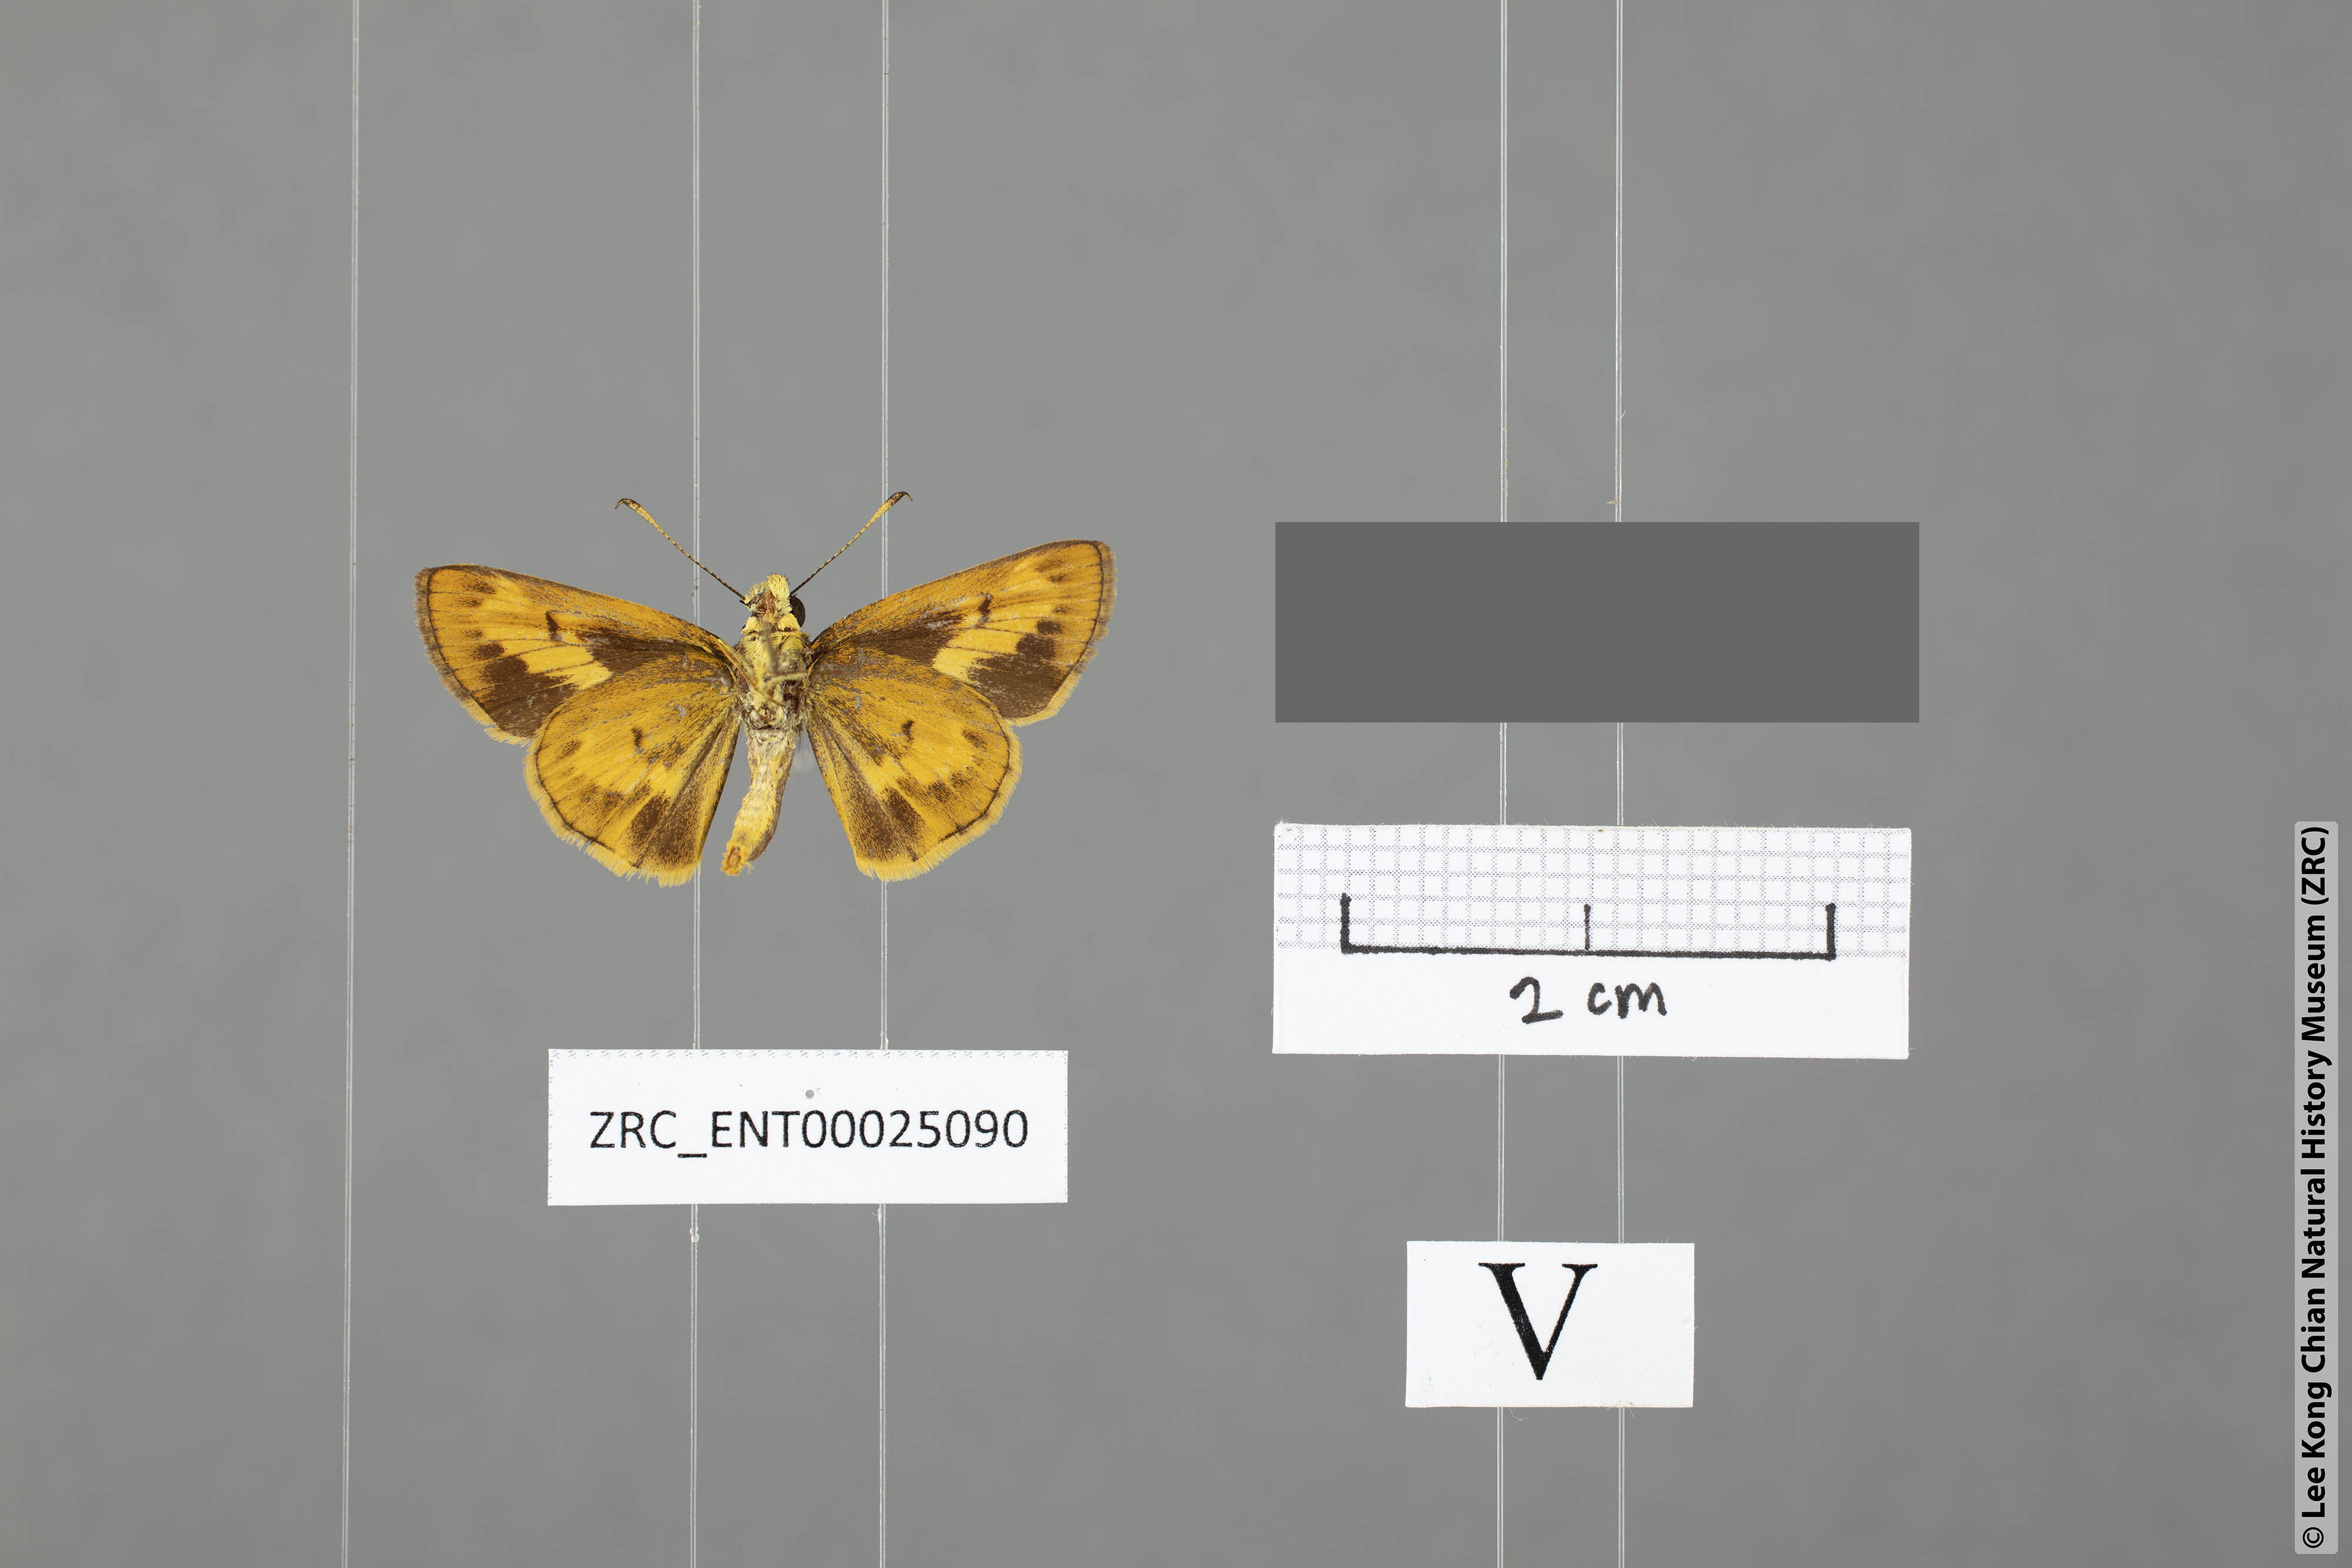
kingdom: Animalia
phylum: Arthropoda
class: Insecta
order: Lepidoptera
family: Hesperiidae
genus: Oriens
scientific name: Oriens goloides
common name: Smaller dartlet
